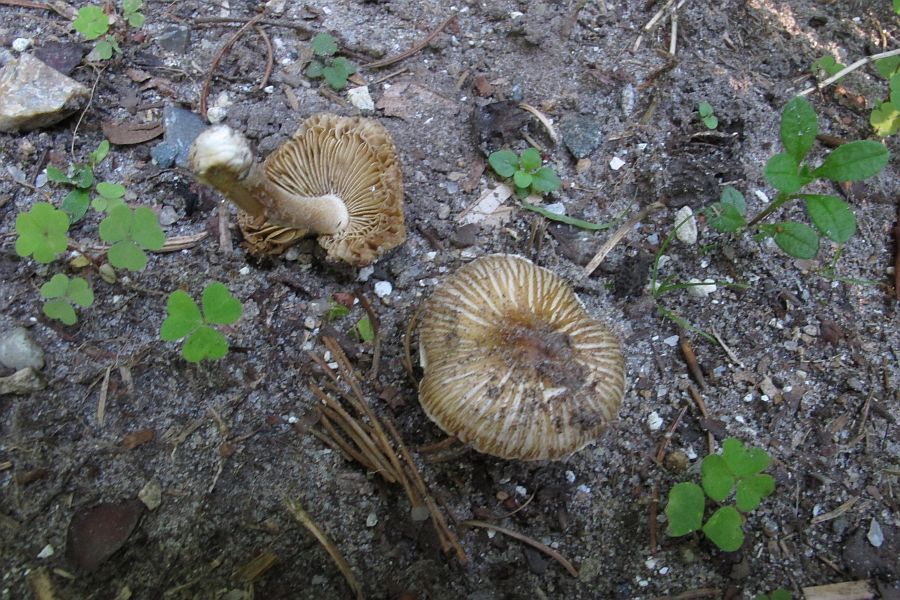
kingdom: Fungi
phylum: Basidiomycota
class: Agaricomycetes
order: Agaricales
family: Inocybaceae
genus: Pseudosperma
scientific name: Pseudosperma rimosum
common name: gulbladet trævlhat
